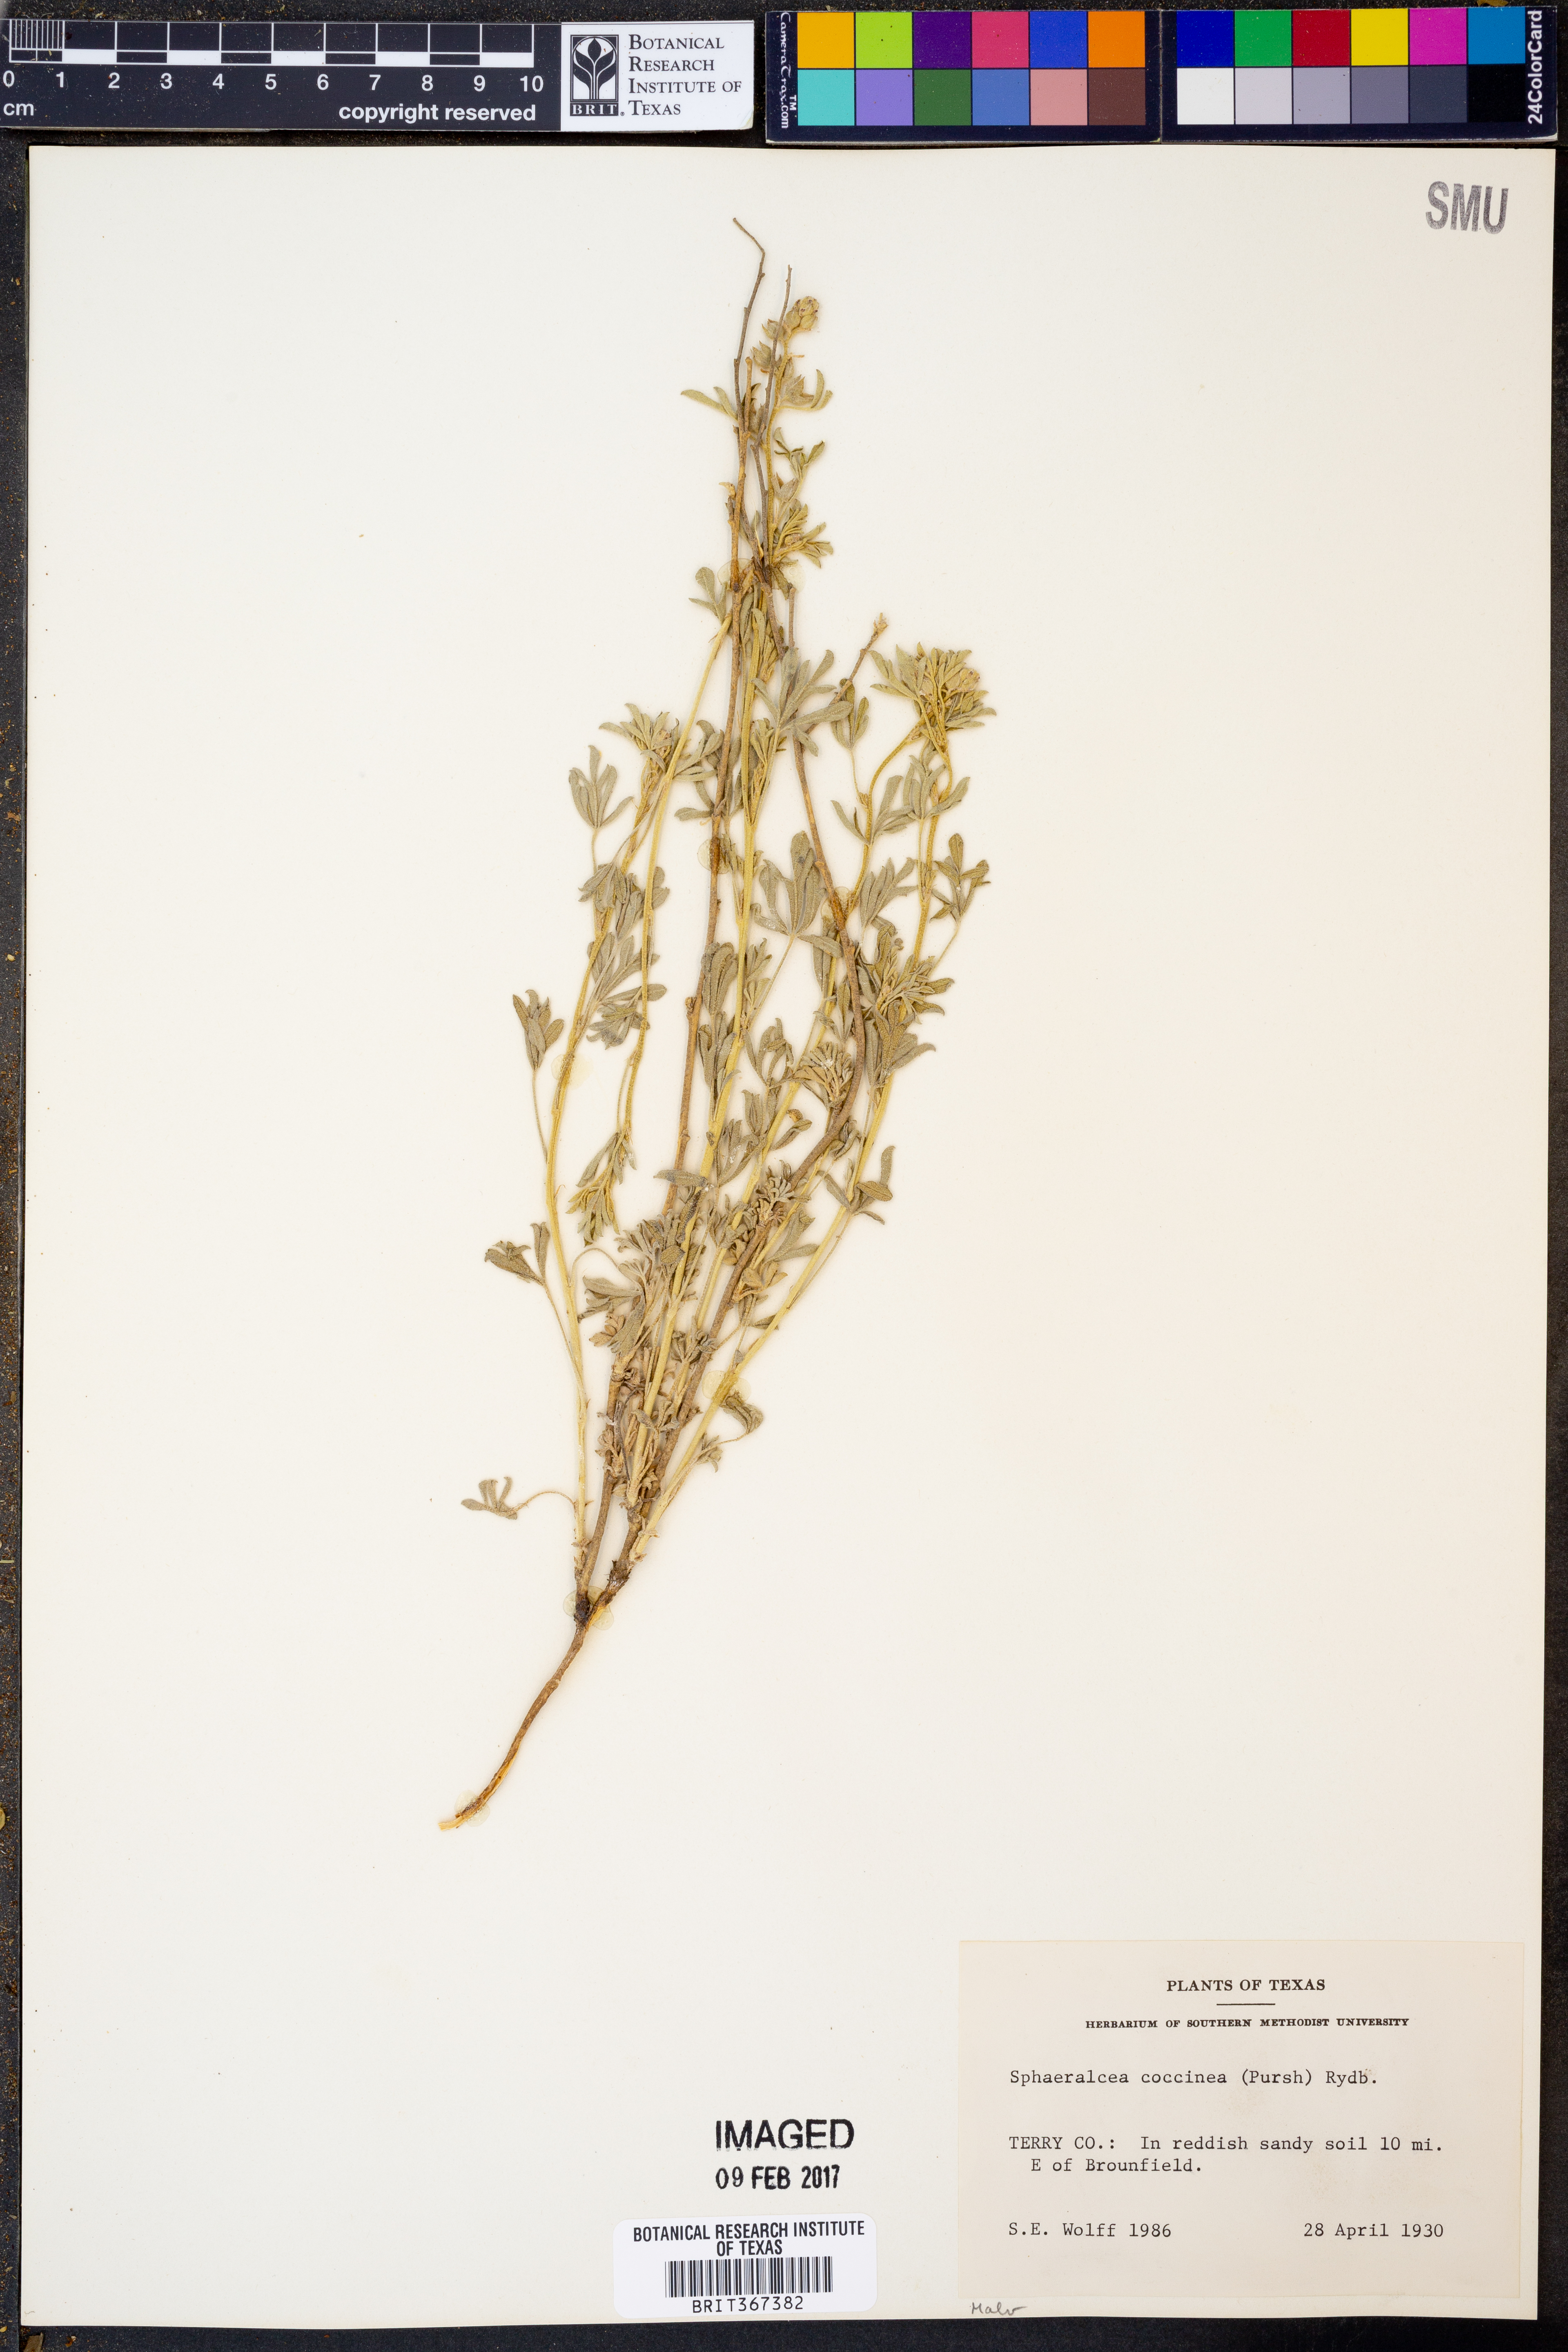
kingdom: Plantae
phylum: Tracheophyta
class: Magnoliopsida
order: Malvales
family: Malvaceae
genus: Sphaeralcea
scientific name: Sphaeralcea coccinea
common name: Moss-rose
